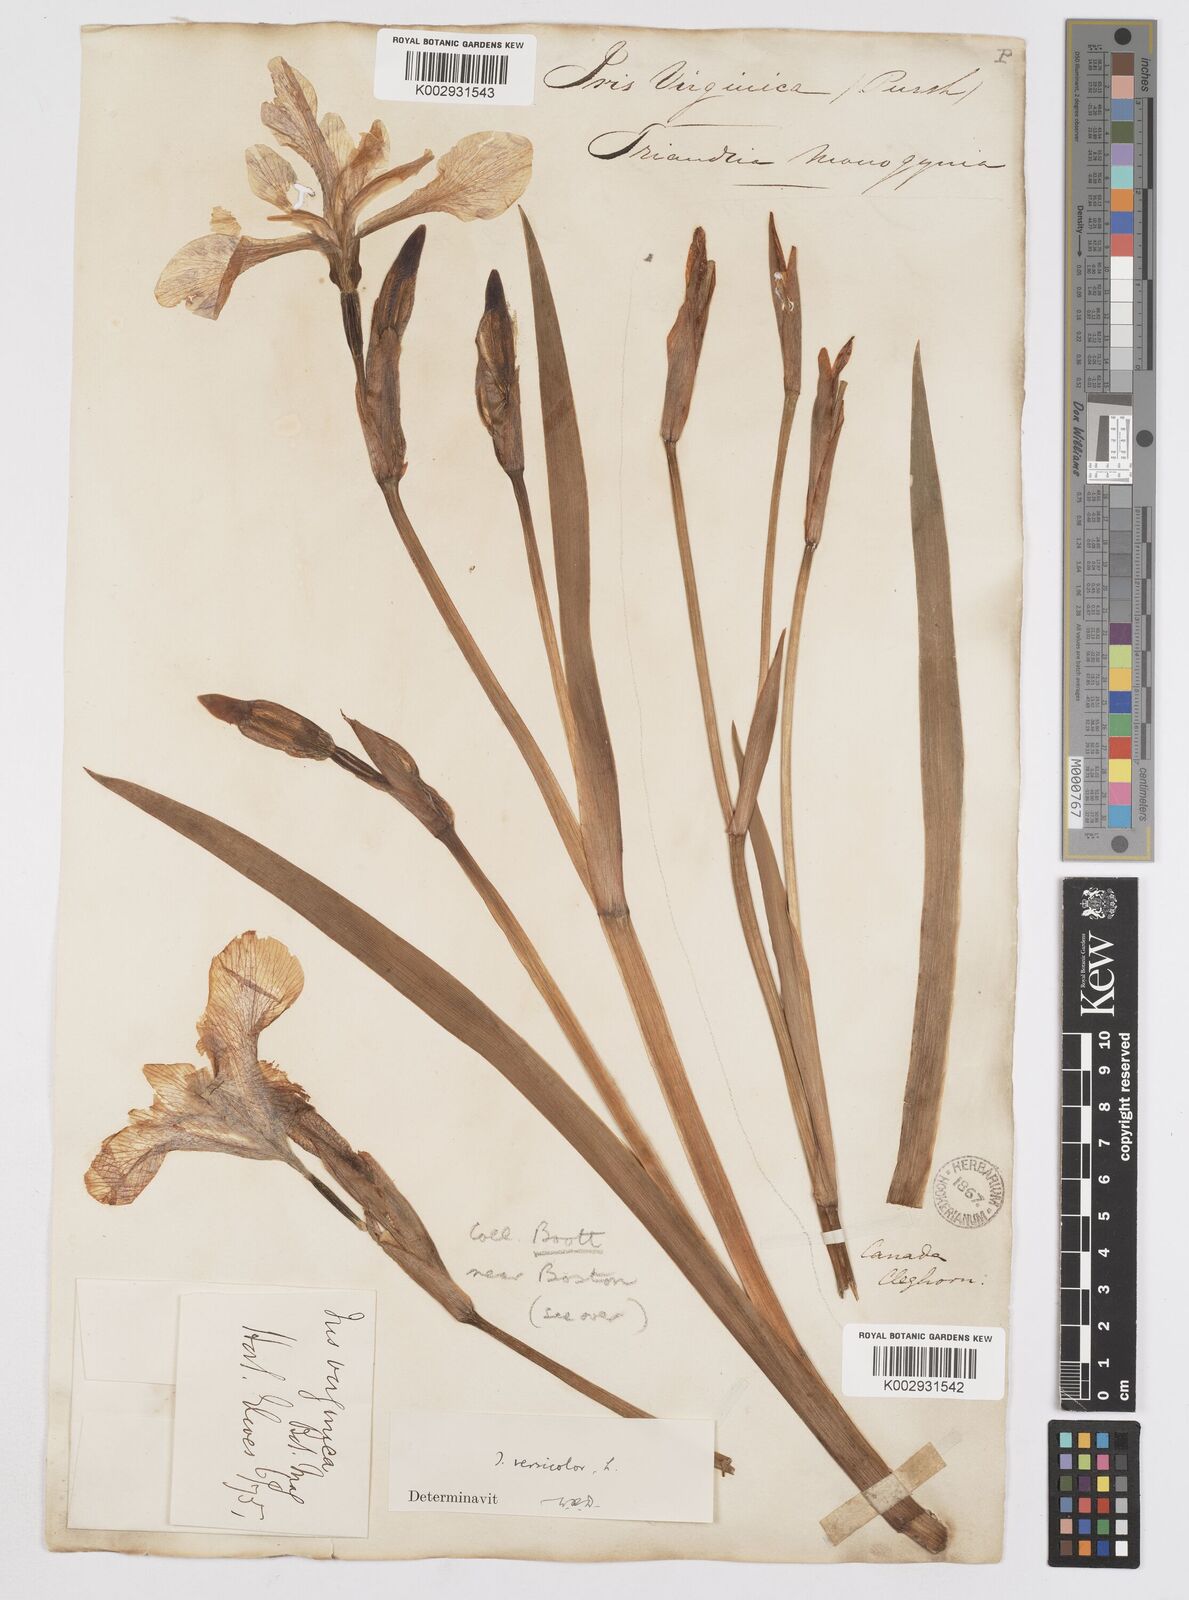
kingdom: Plantae
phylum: Tracheophyta
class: Liliopsida
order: Asparagales
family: Iridaceae
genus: Iris
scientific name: Iris versicolor
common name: Purple iris
